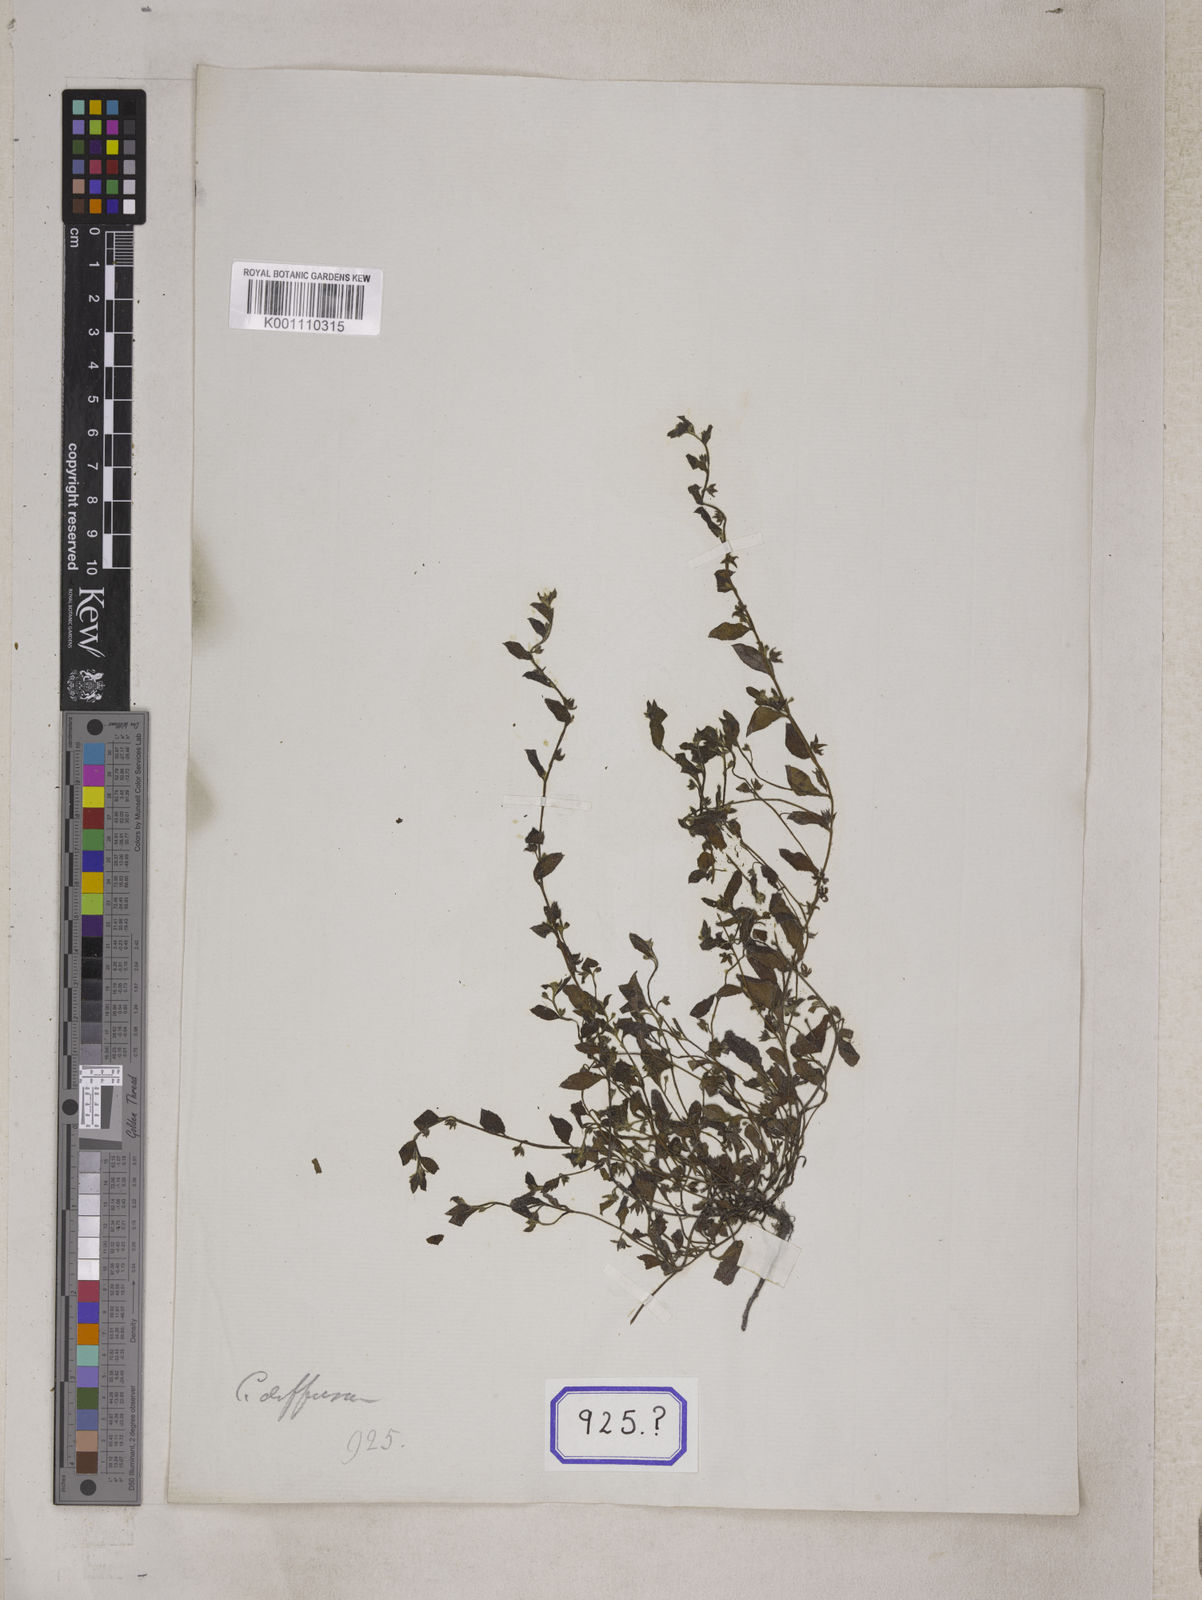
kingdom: Plantae
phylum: Tracheophyta
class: Magnoliopsida
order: Boraginales
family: Boraginaceae
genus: Cynoglossum
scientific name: Cynoglossum
